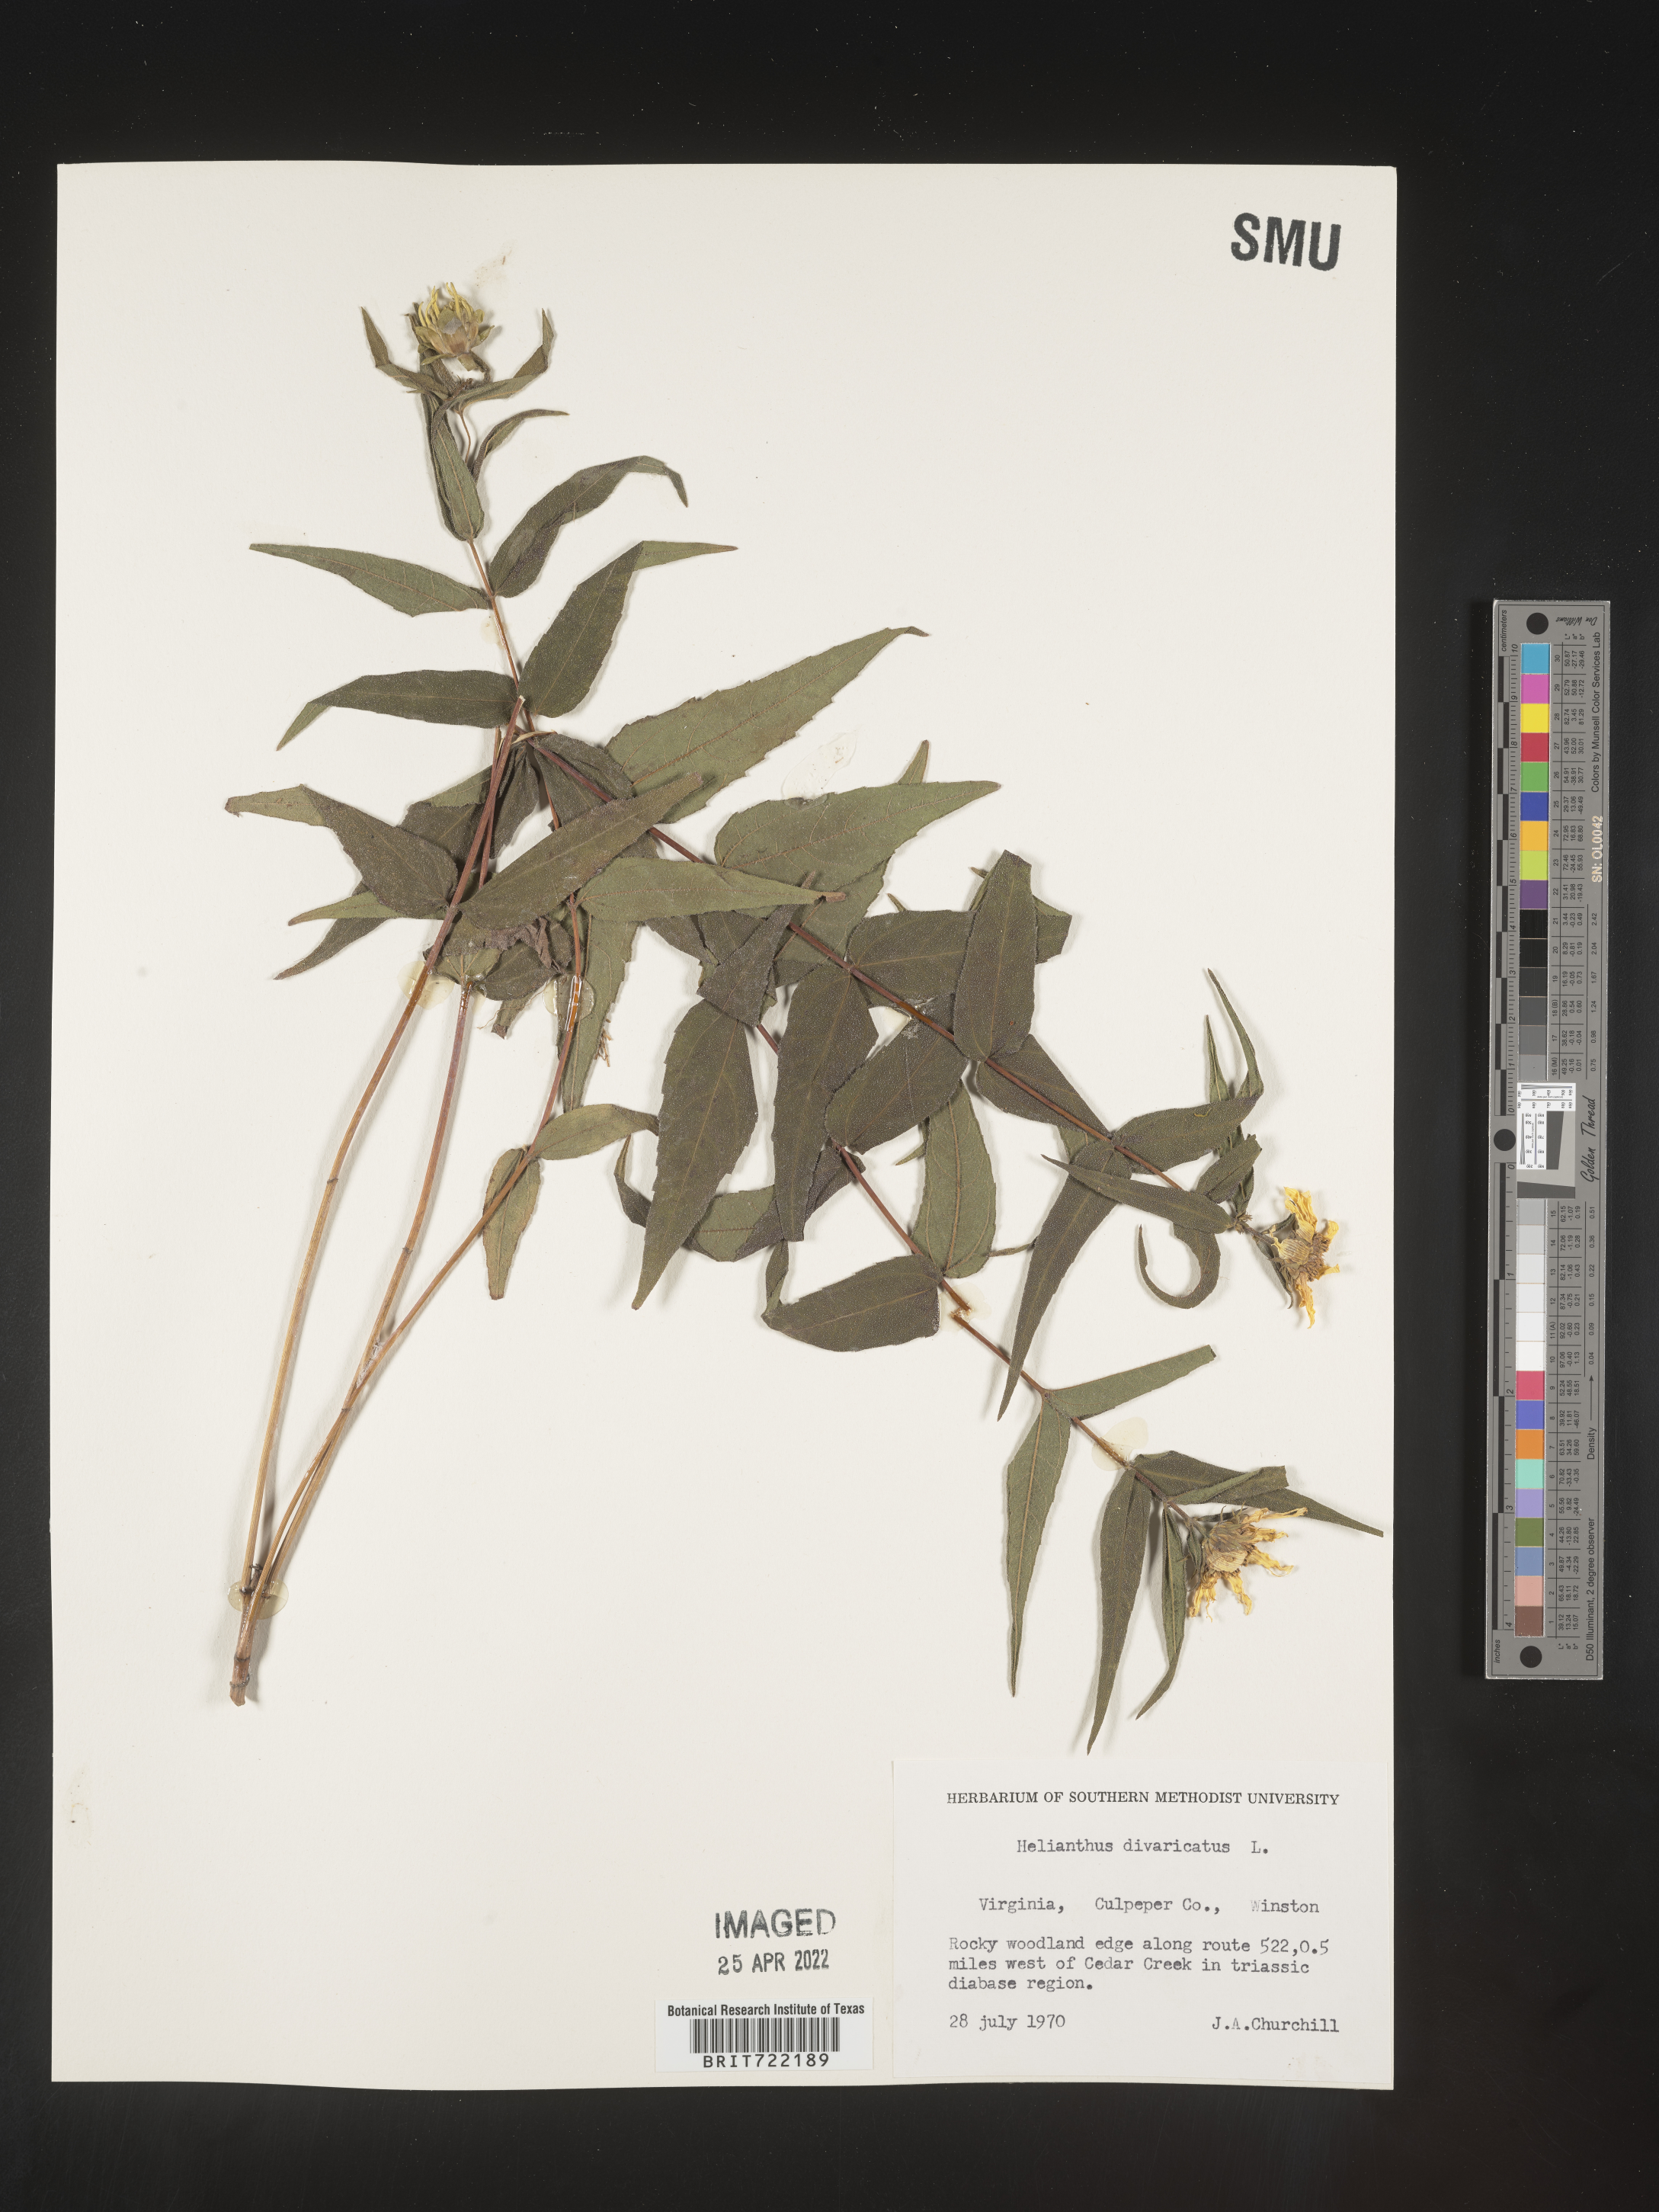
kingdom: Plantae
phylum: Tracheophyta
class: Magnoliopsida
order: Asterales
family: Asteraceae
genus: Helianthus
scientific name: Helianthus divaricatus
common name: Divergent sunflower
